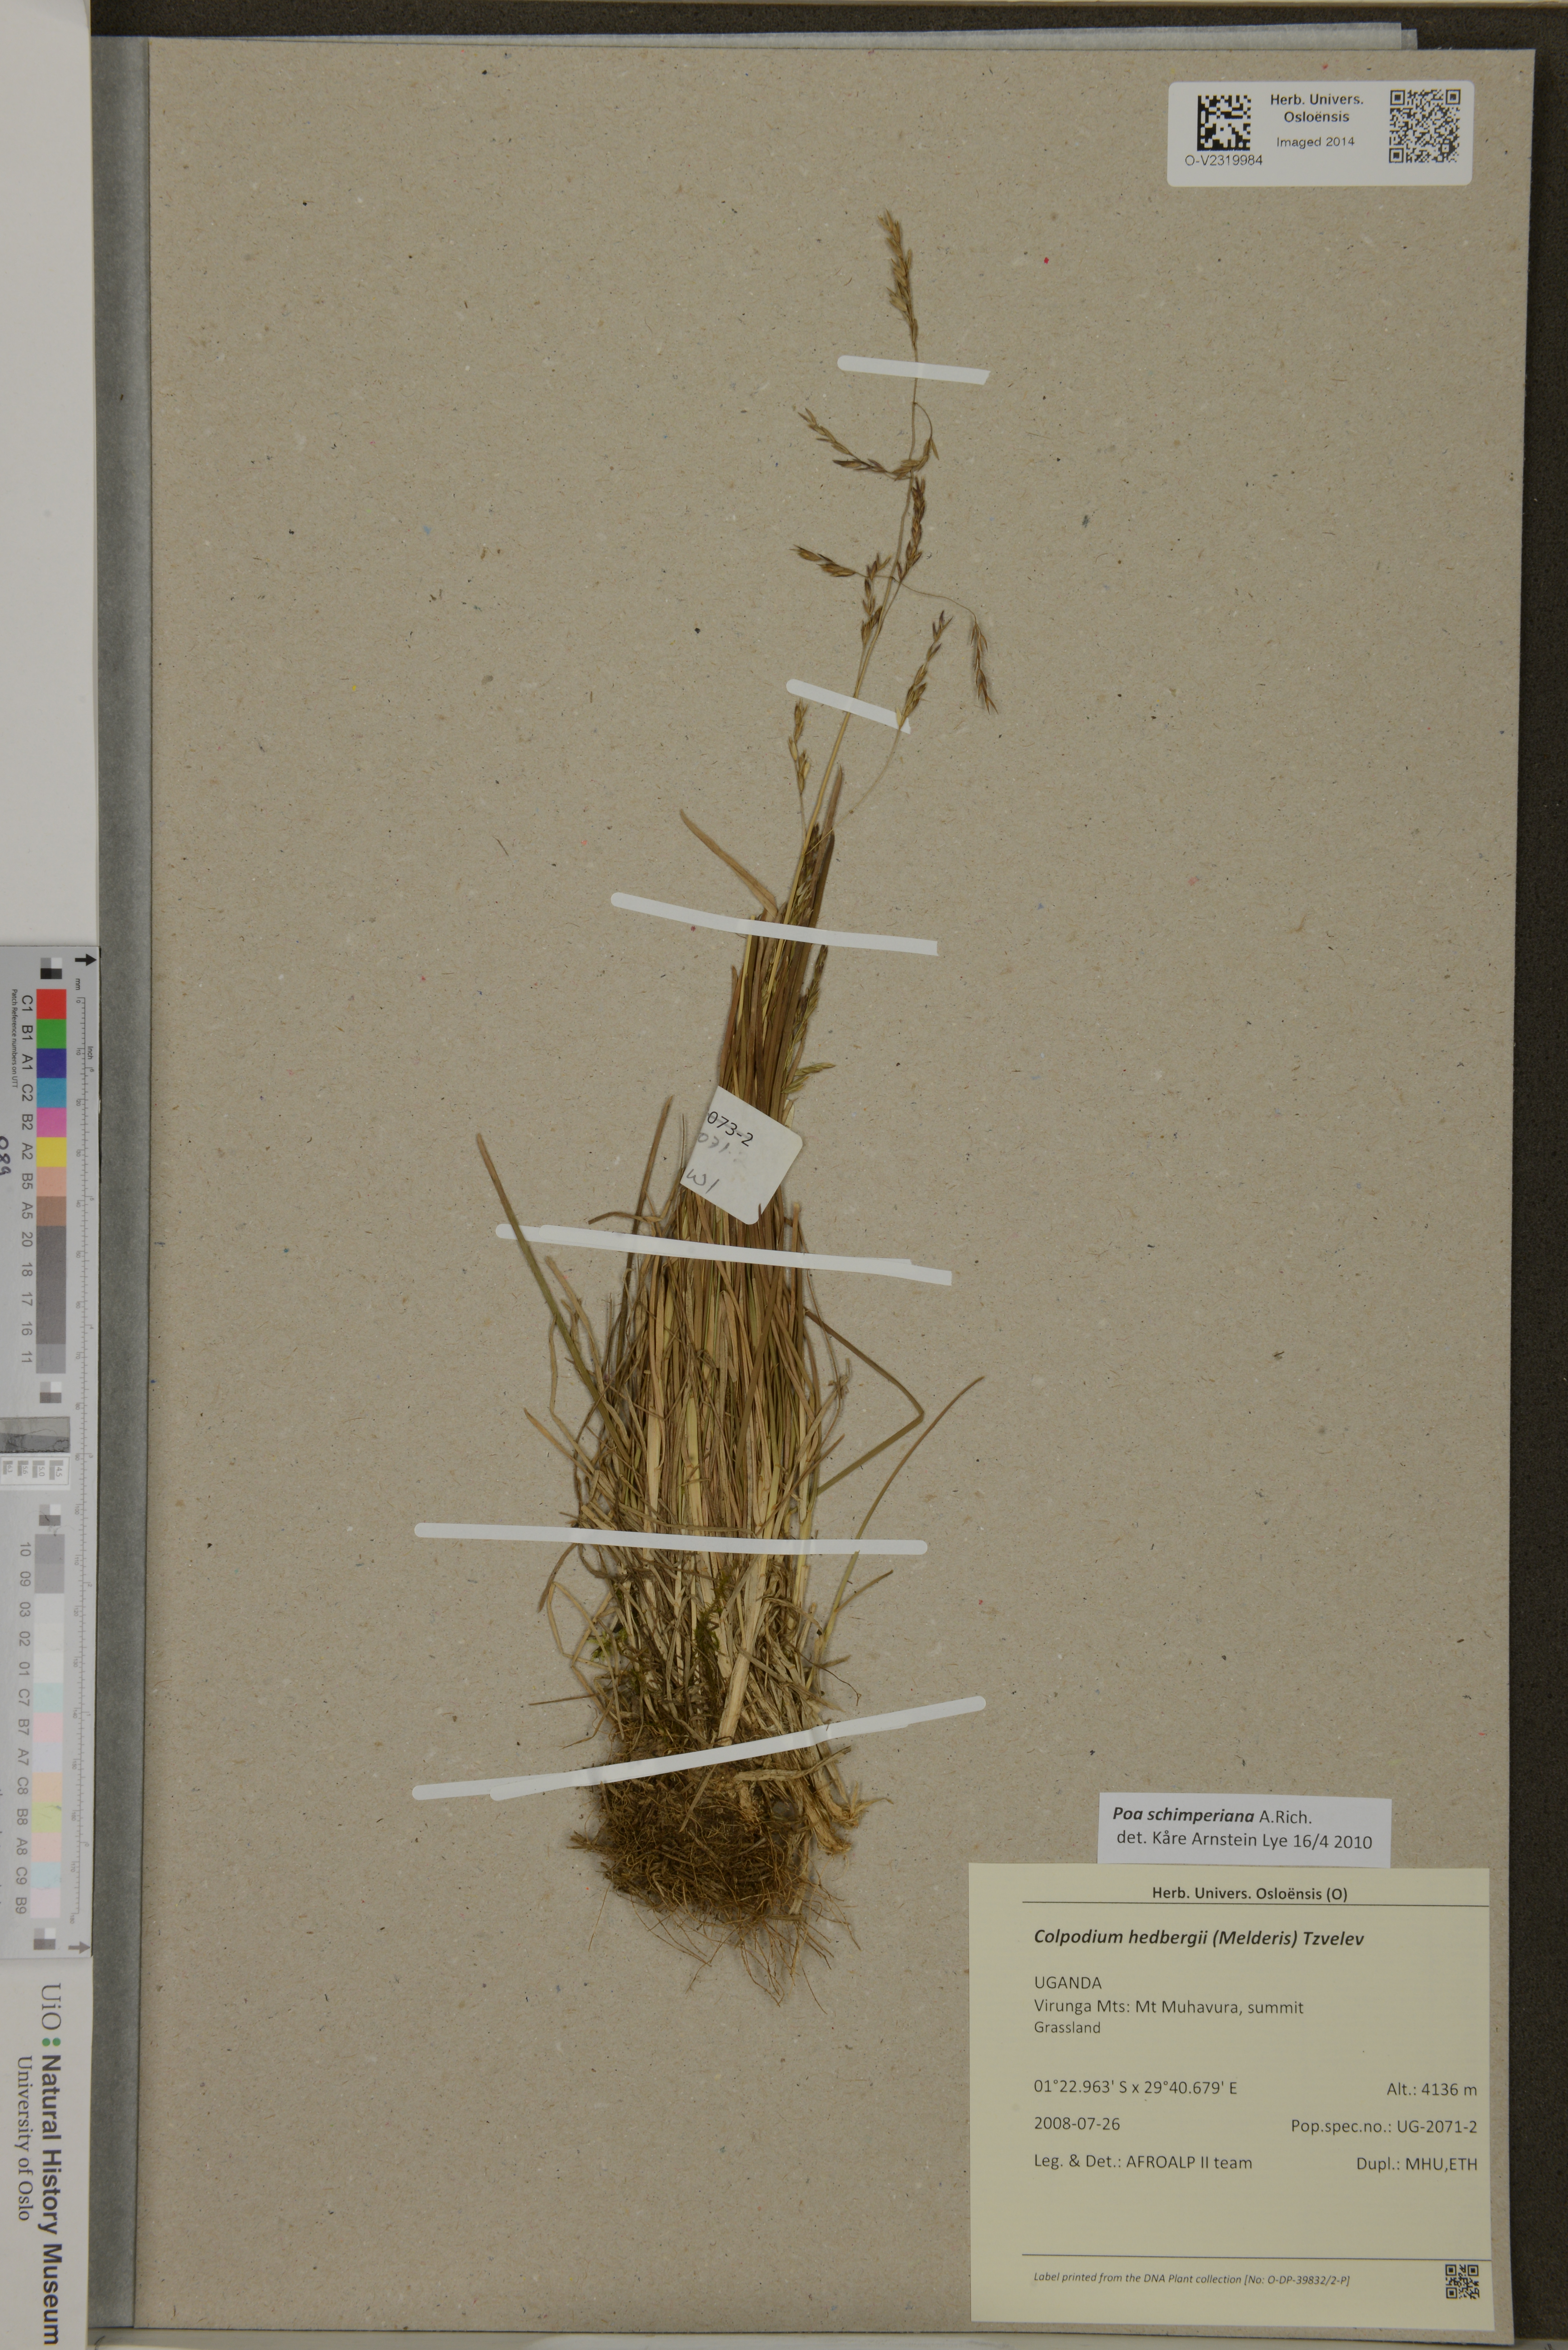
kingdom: Plantae
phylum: Tracheophyta
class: Liliopsida
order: Poales
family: Poaceae
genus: Poa
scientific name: Poa schimperiana
